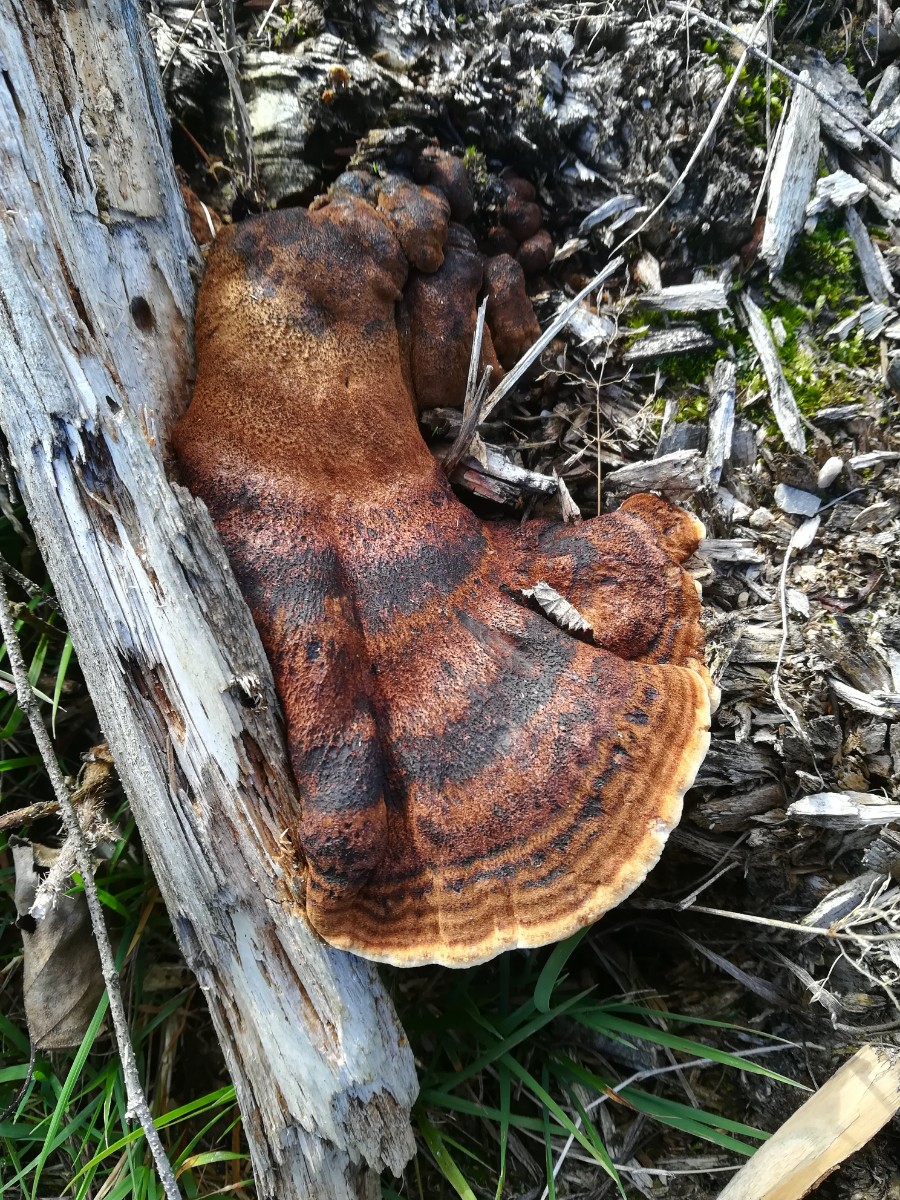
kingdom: Fungi
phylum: Basidiomycota
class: Agaricomycetes
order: Polyporales
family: Ischnodermataceae
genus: Ischnoderma
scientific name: Ischnoderma benzoinum
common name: gran-tjæreporesvamp
